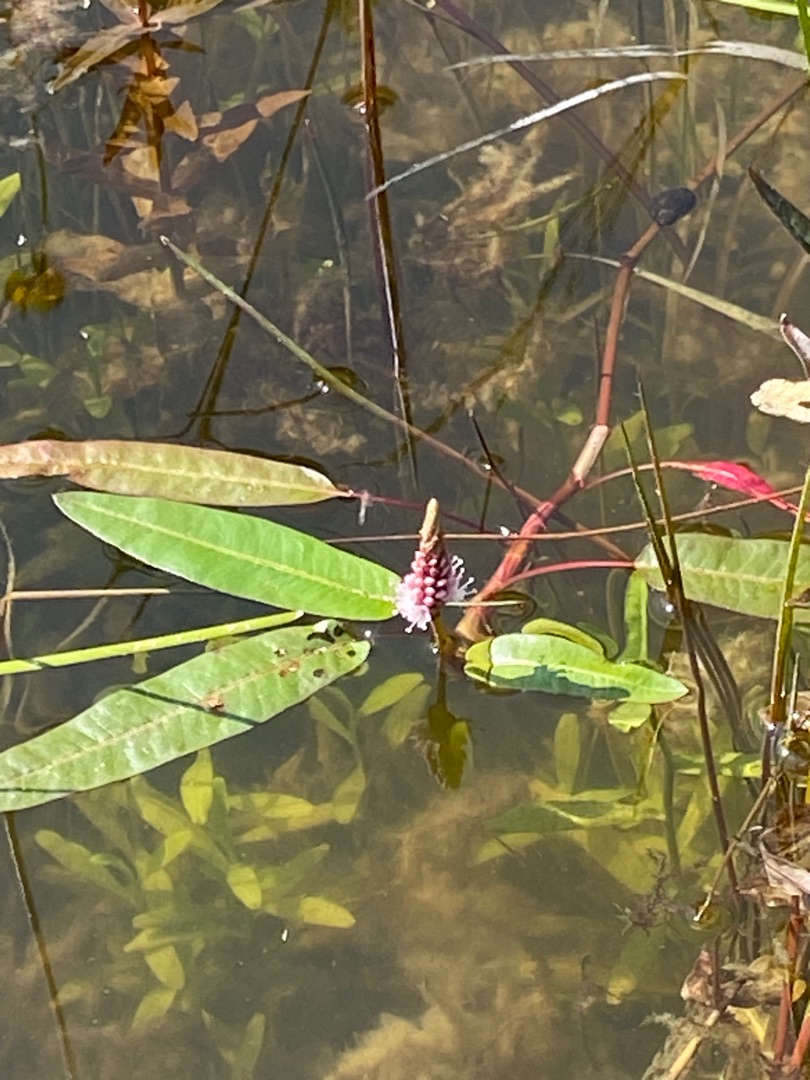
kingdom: Plantae
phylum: Tracheophyta
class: Magnoliopsida
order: Caryophyllales
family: Polygonaceae
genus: Persicaria
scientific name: Persicaria amphibia
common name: Vand-pileurt
